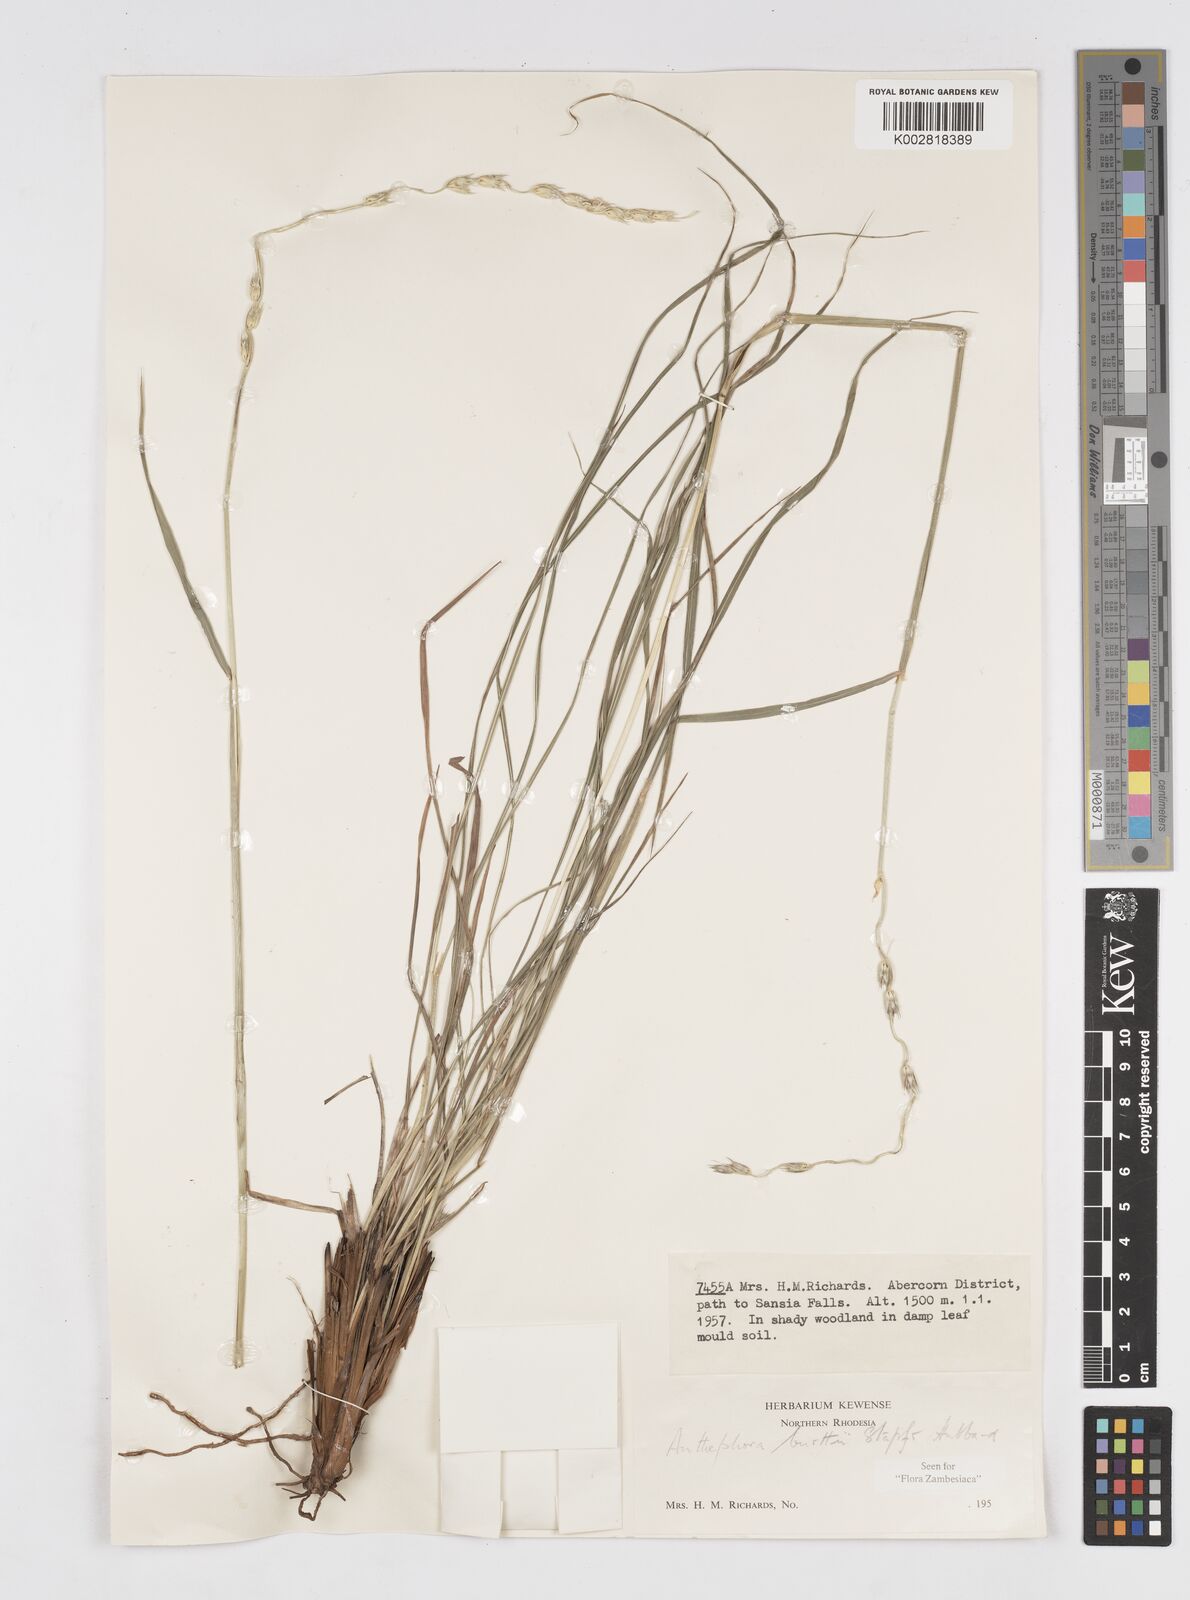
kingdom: Plantae
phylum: Tracheophyta
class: Liliopsida
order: Poales
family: Poaceae
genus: Anthephora
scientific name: Anthephora elongata
